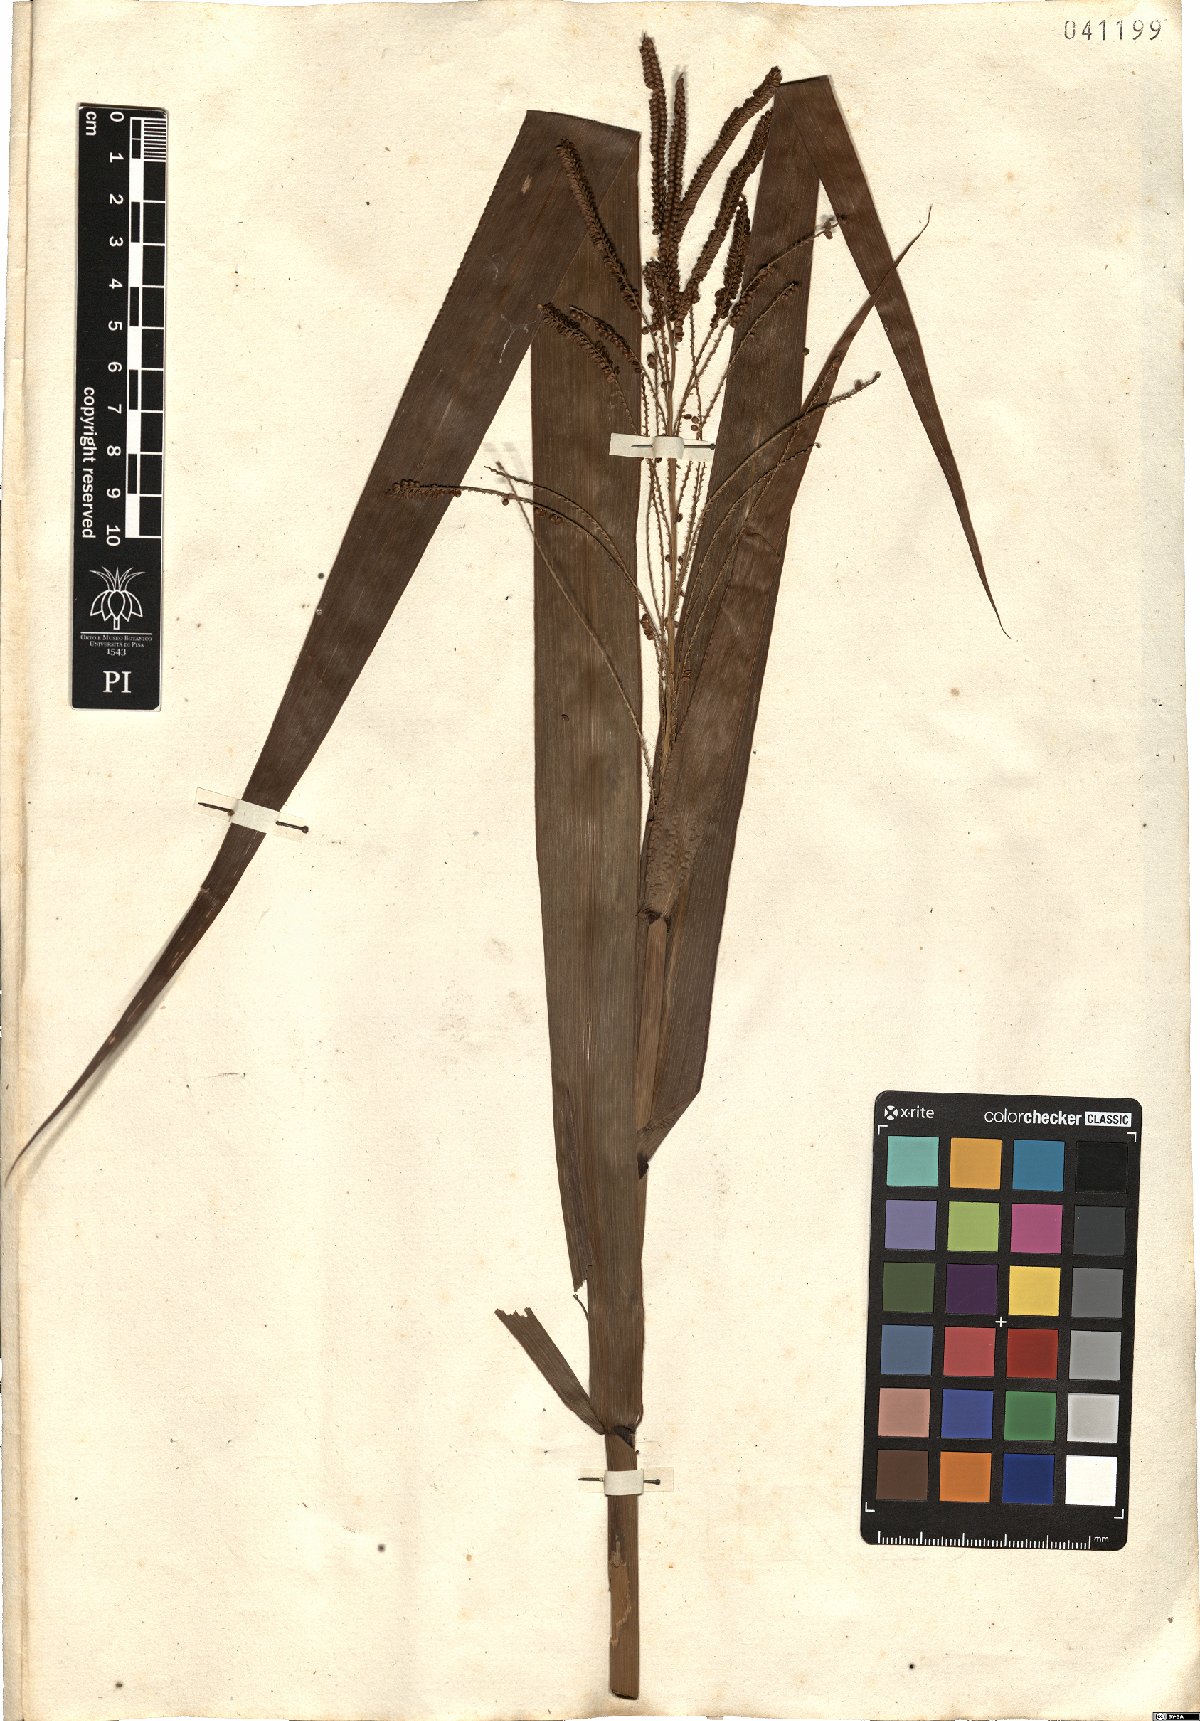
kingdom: Plantae
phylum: Tracheophyta
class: Liliopsida
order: Poales
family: Poaceae
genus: Paspalum
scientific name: Paspalum virgatum
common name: Talquezal
